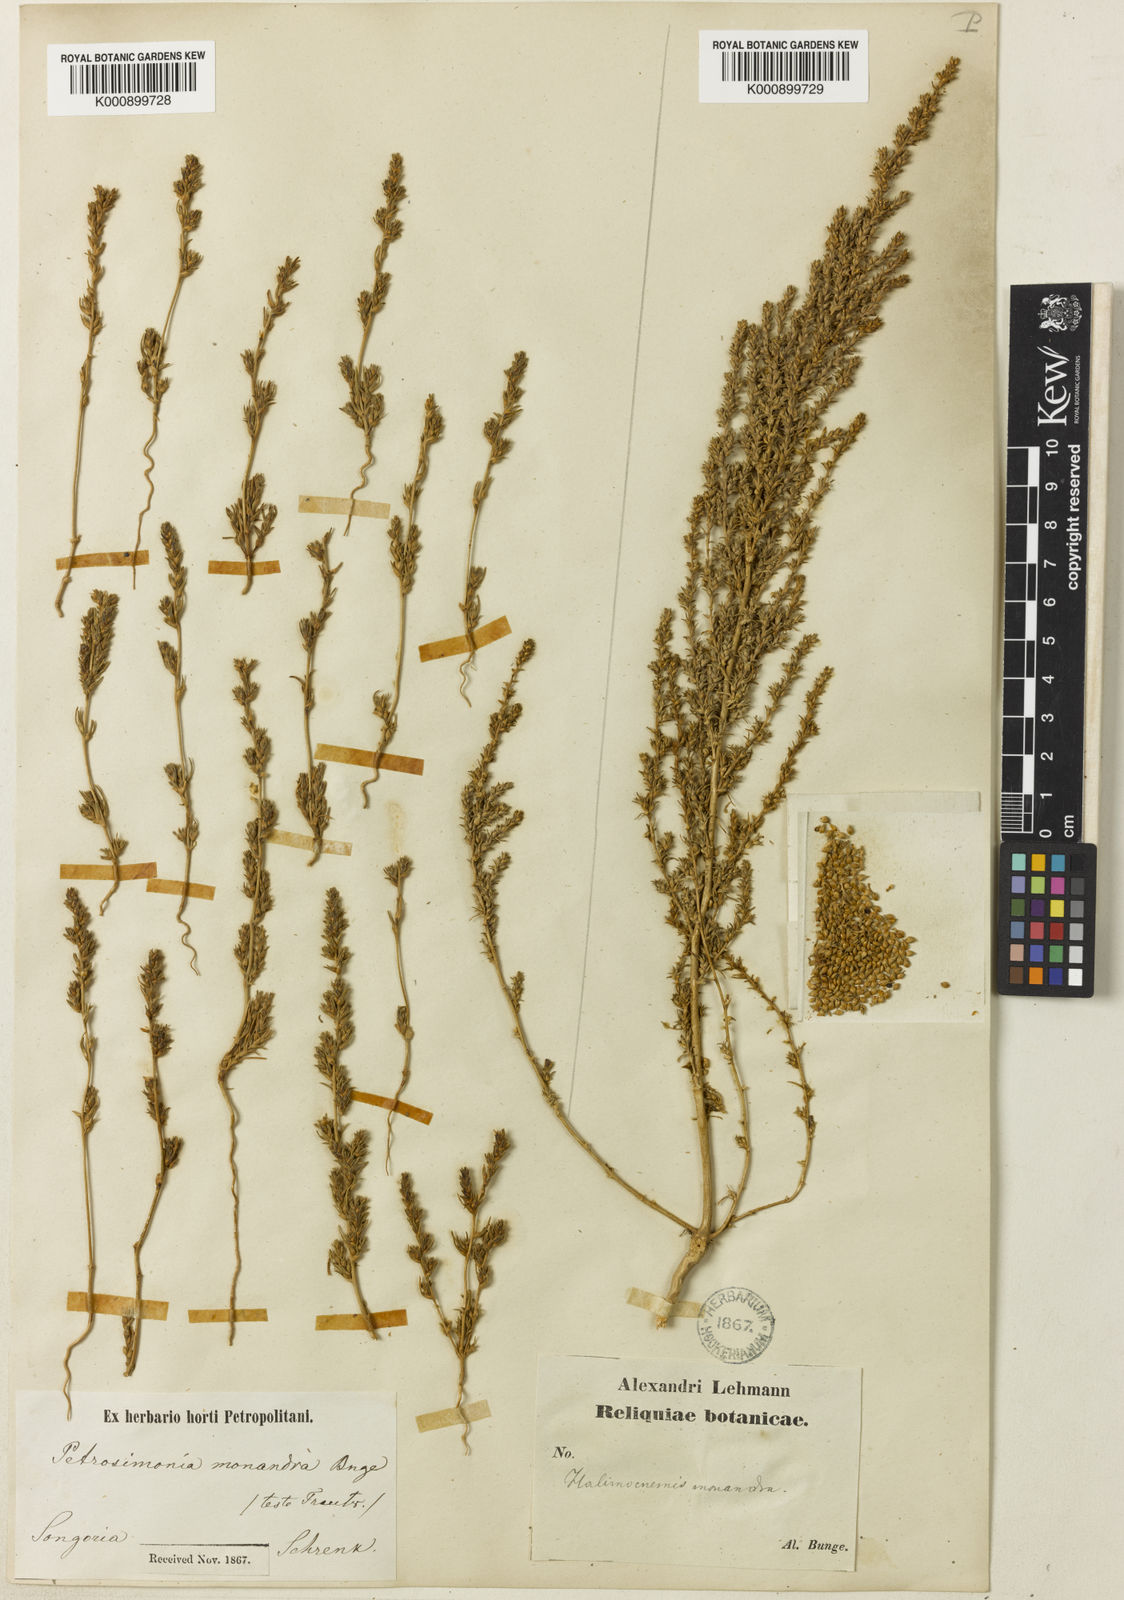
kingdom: Plantae
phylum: Tracheophyta
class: Magnoliopsida
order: Caryophyllales
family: Amaranthaceae
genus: Petrosimonia
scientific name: Petrosimonia monandra
